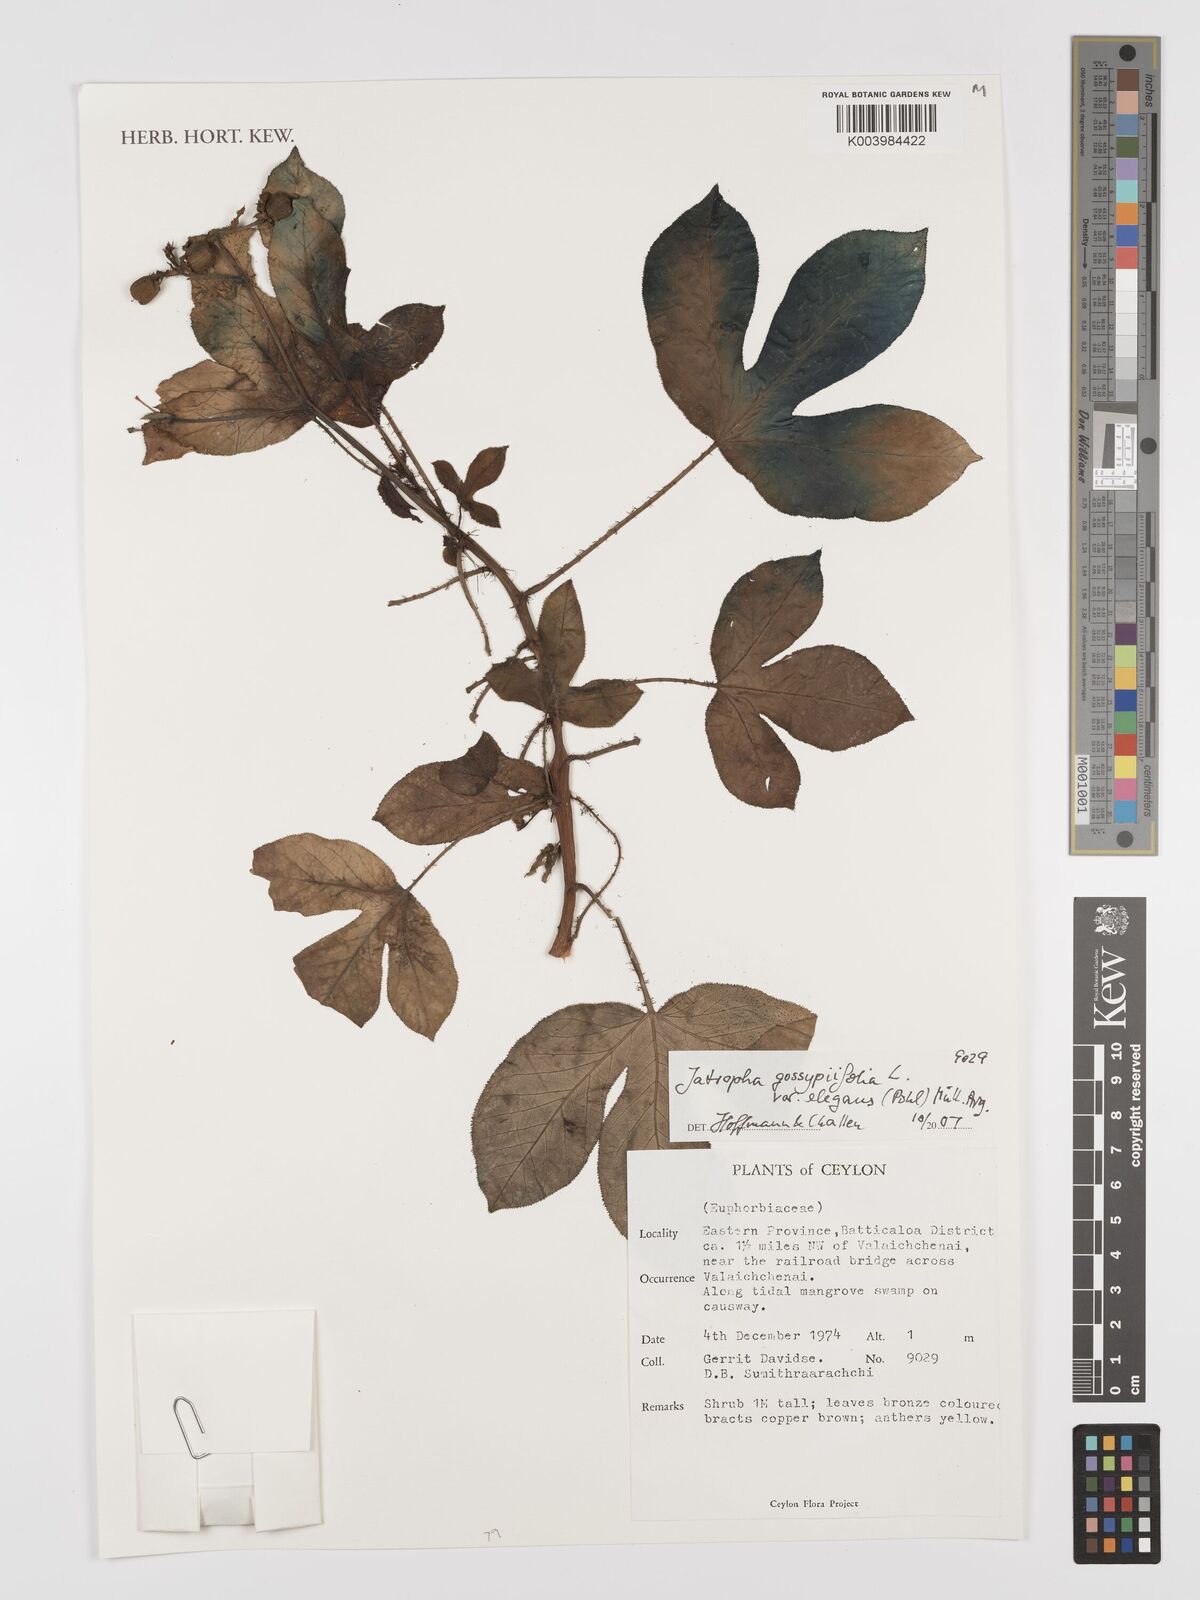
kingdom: Plantae
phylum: Tracheophyta
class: Magnoliopsida
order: Malpighiales
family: Euphorbiaceae
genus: Jatropha
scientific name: Jatropha gossypiifolia
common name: Bellyache bush
